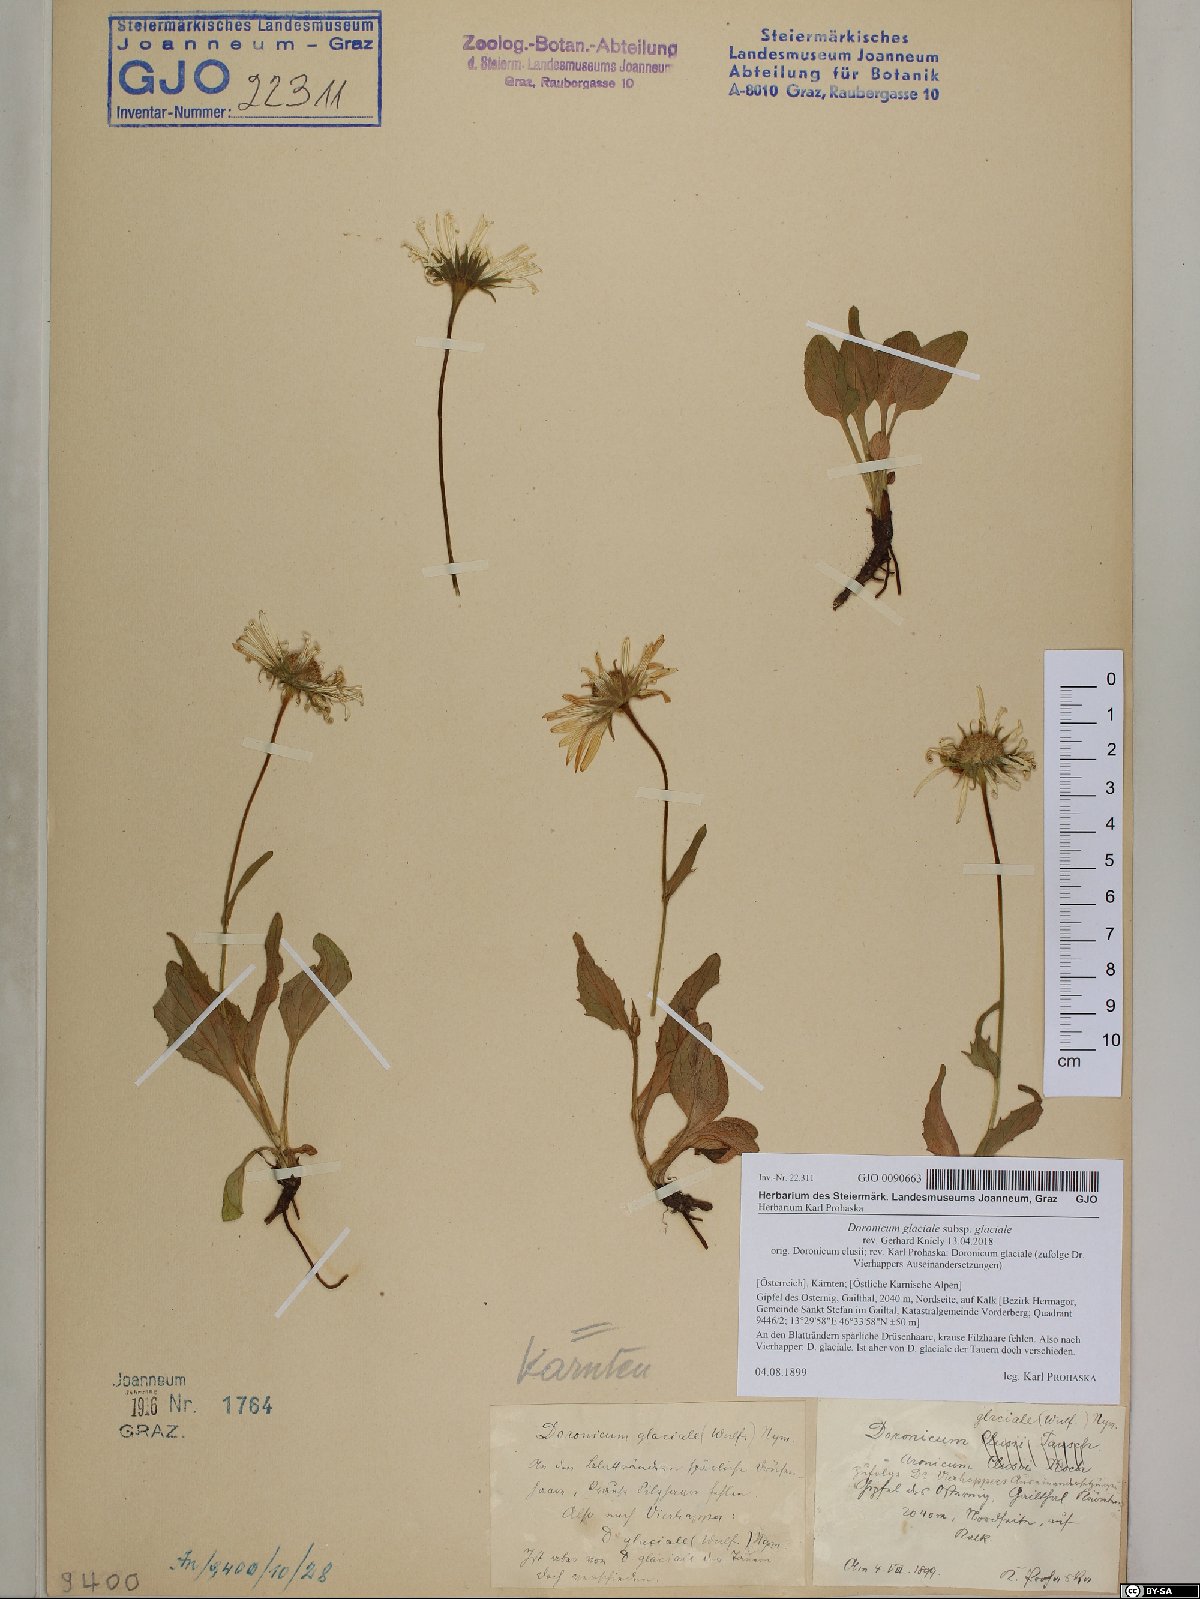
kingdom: Plantae
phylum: Tracheophyta
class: Magnoliopsida
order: Asterales
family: Asteraceae
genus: Doronicum
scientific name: Doronicum glaciale
